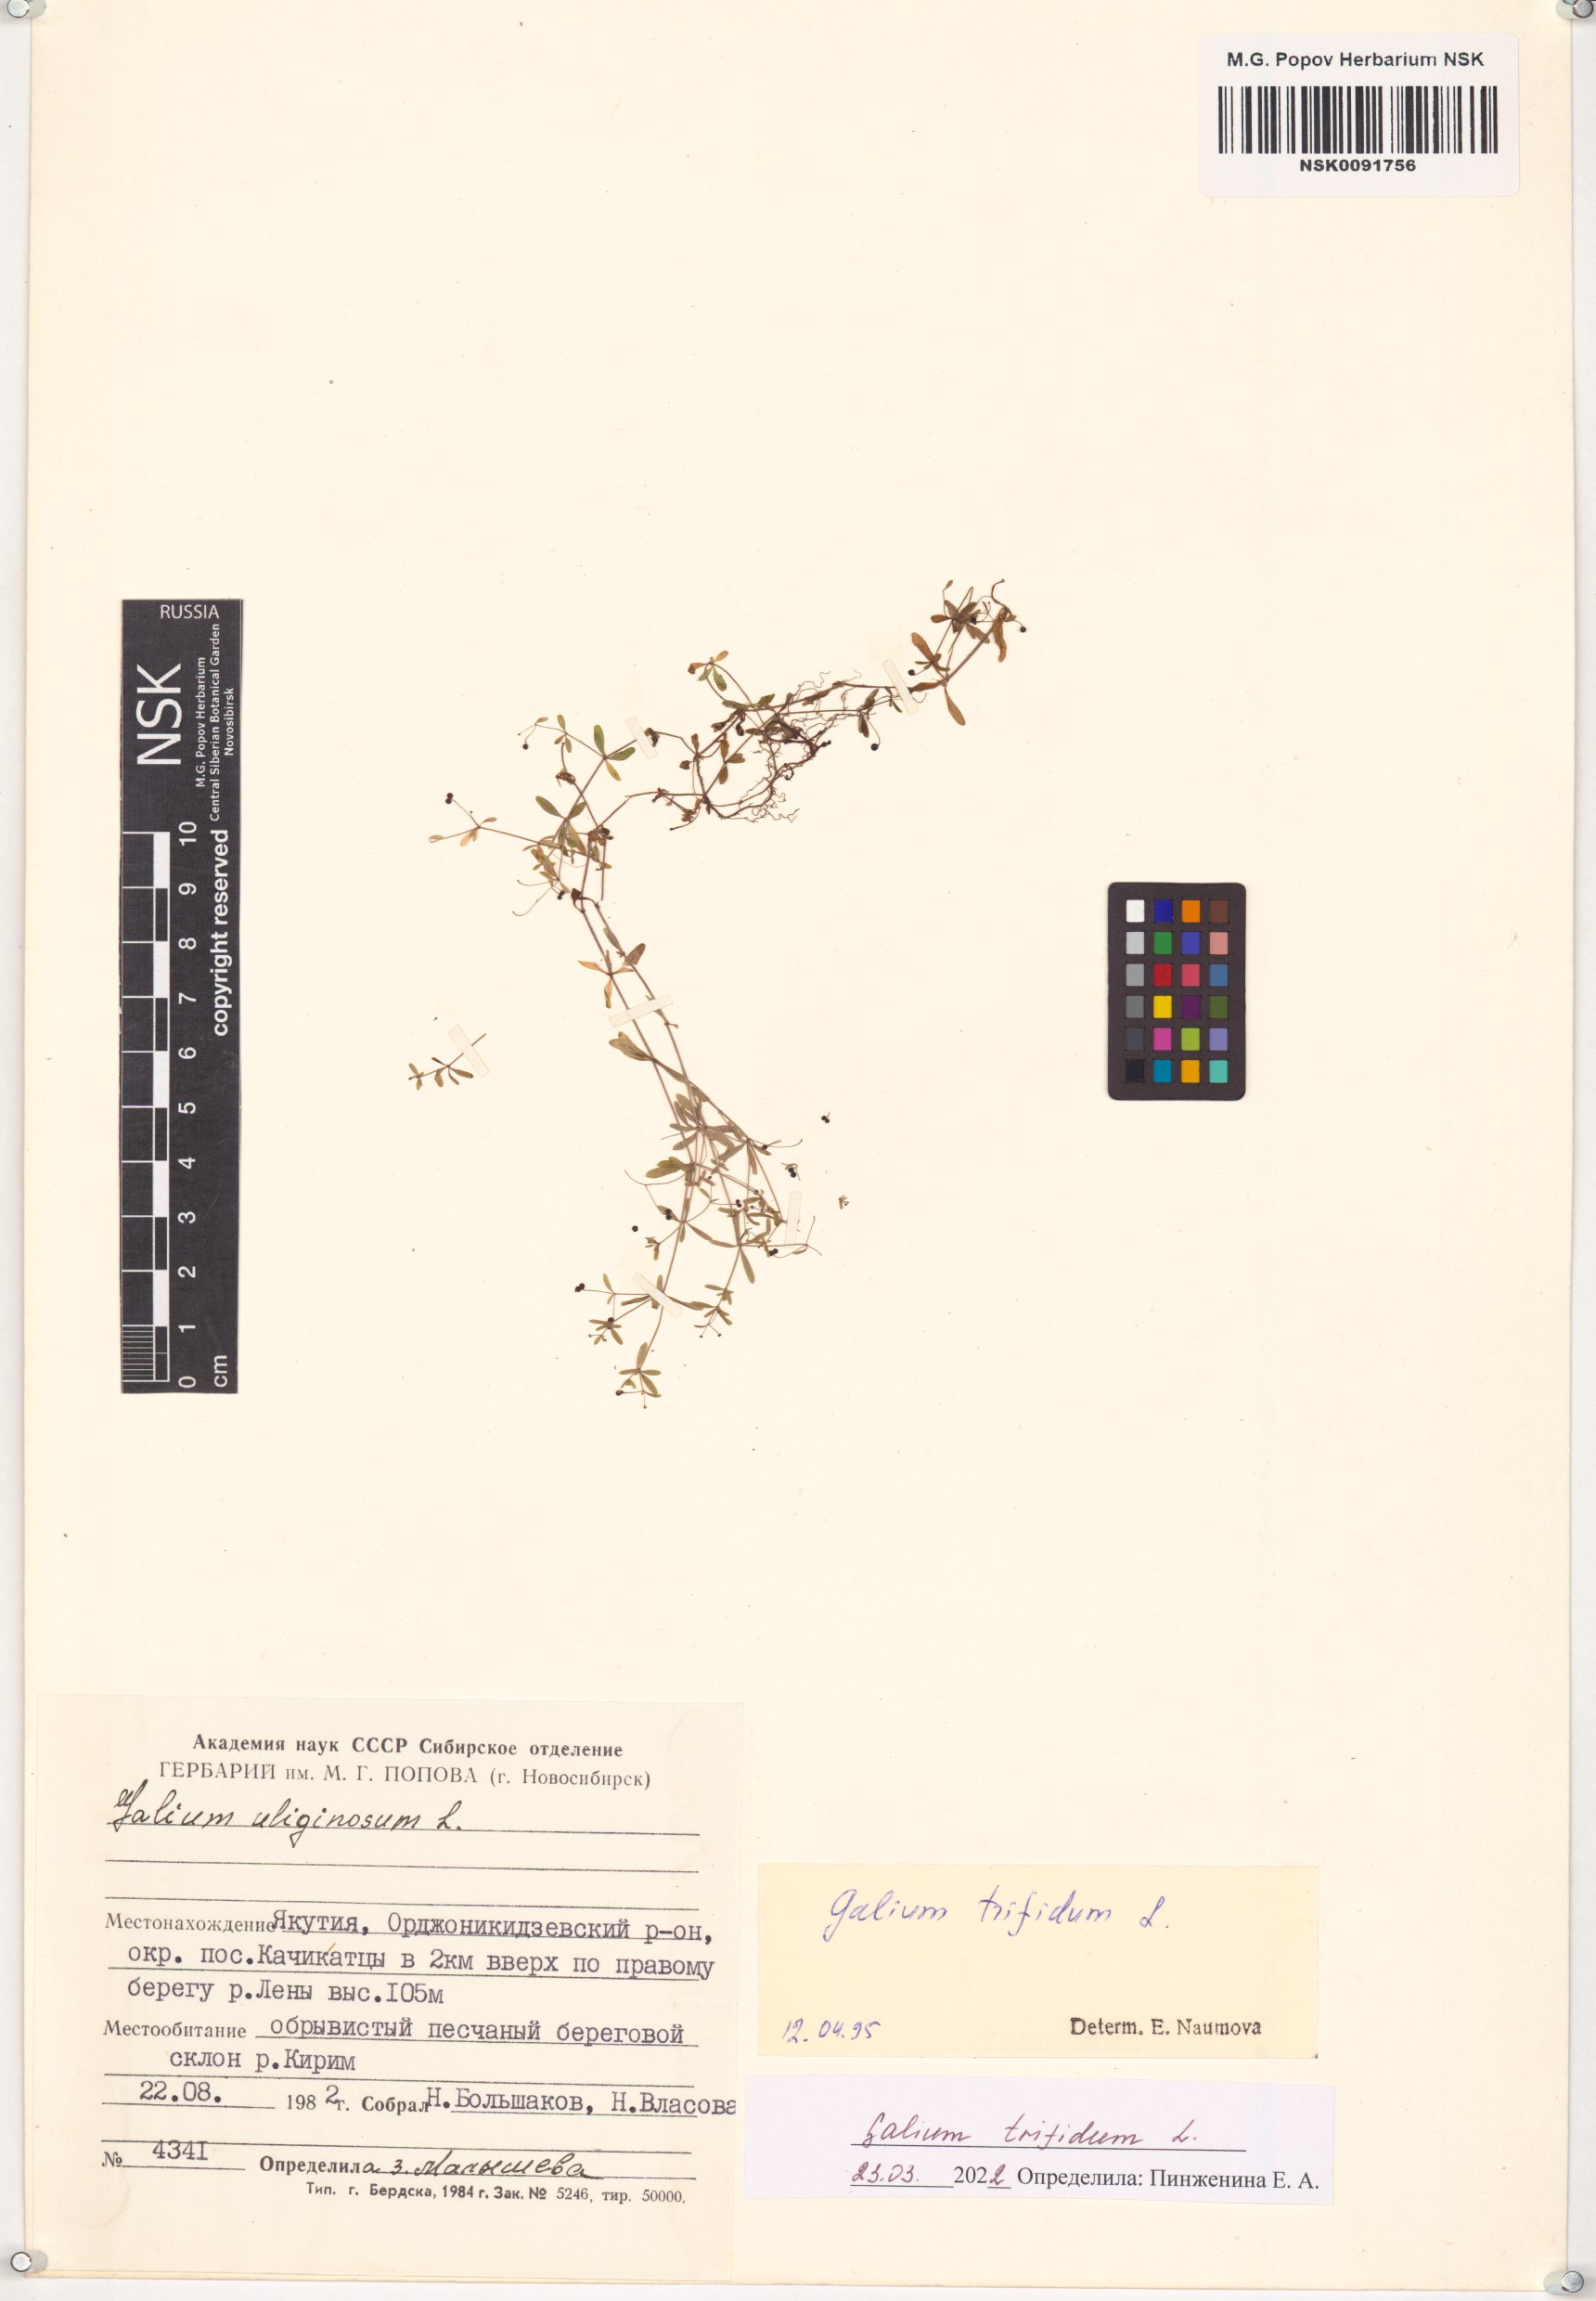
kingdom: Plantae
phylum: Tracheophyta
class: Magnoliopsida
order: Gentianales
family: Rubiaceae
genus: Galium
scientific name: Galium trifidum
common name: Small bedstraw
